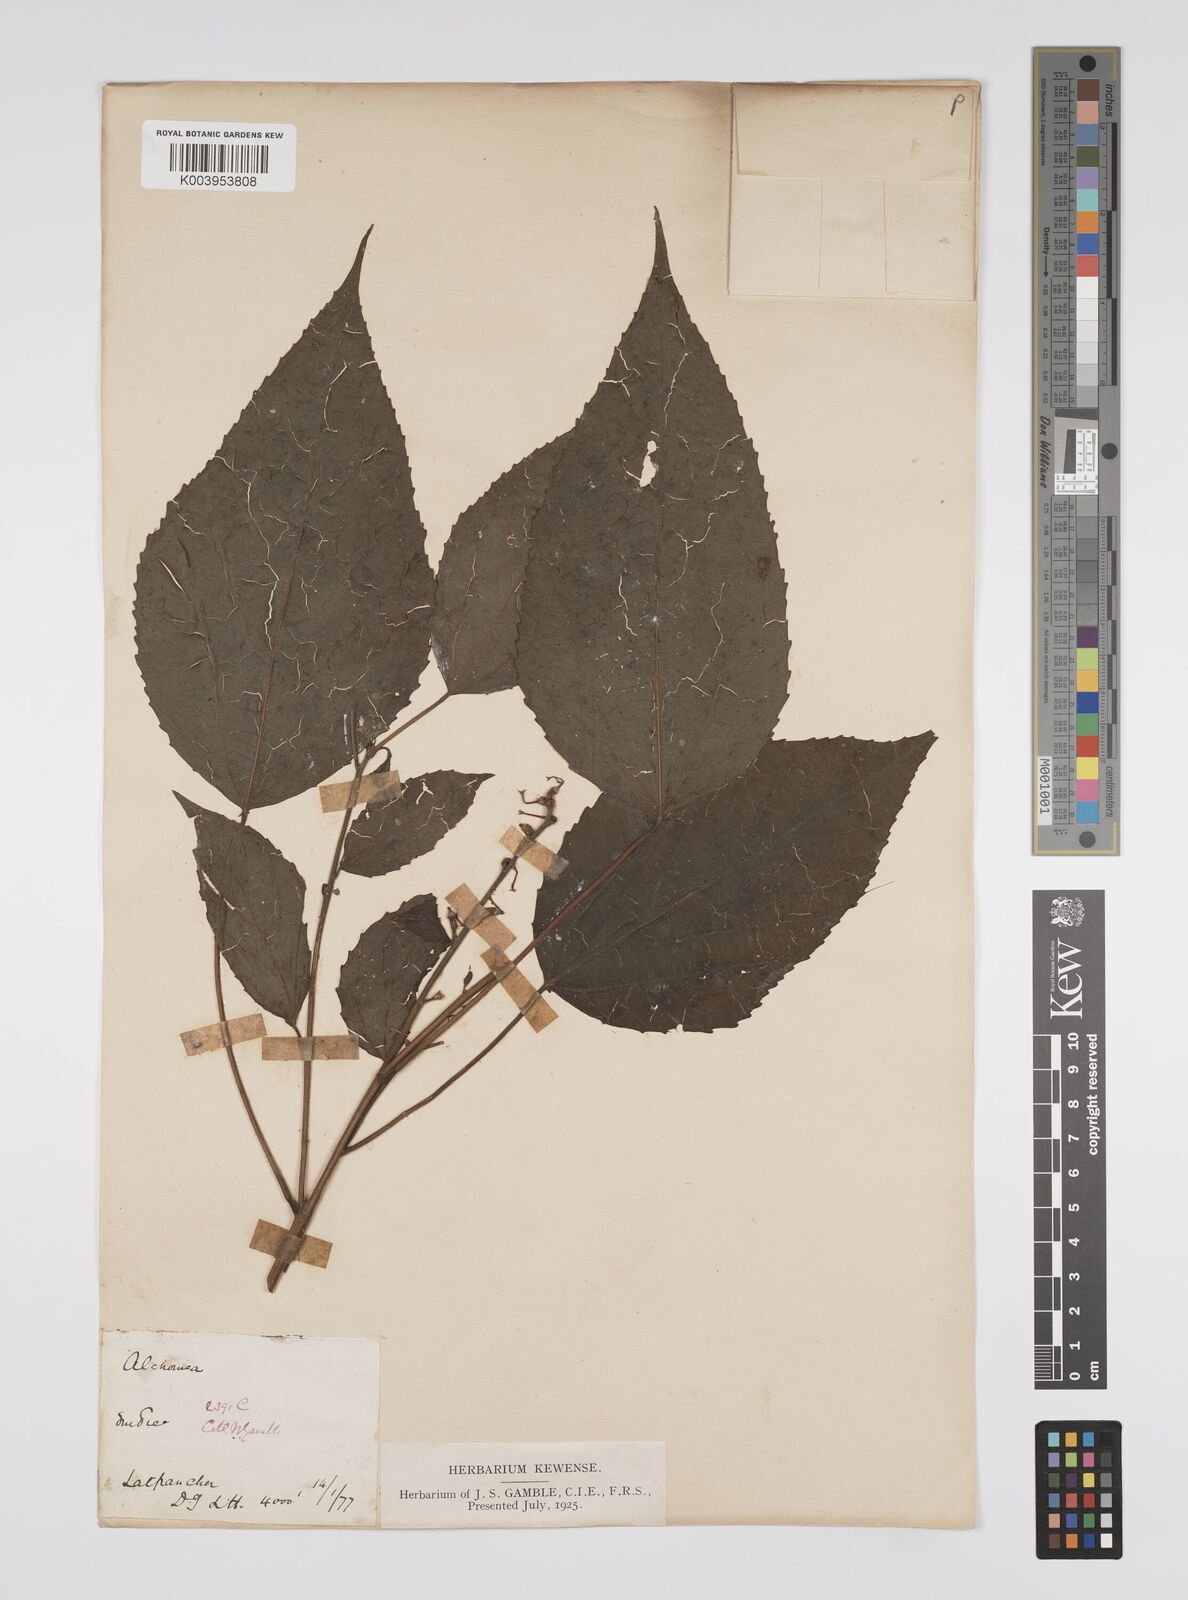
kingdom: Plantae
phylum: Tracheophyta
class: Magnoliopsida
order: Malpighiales
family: Euphorbiaceae
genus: Alchornea
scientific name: Alchornea tiliifolia
